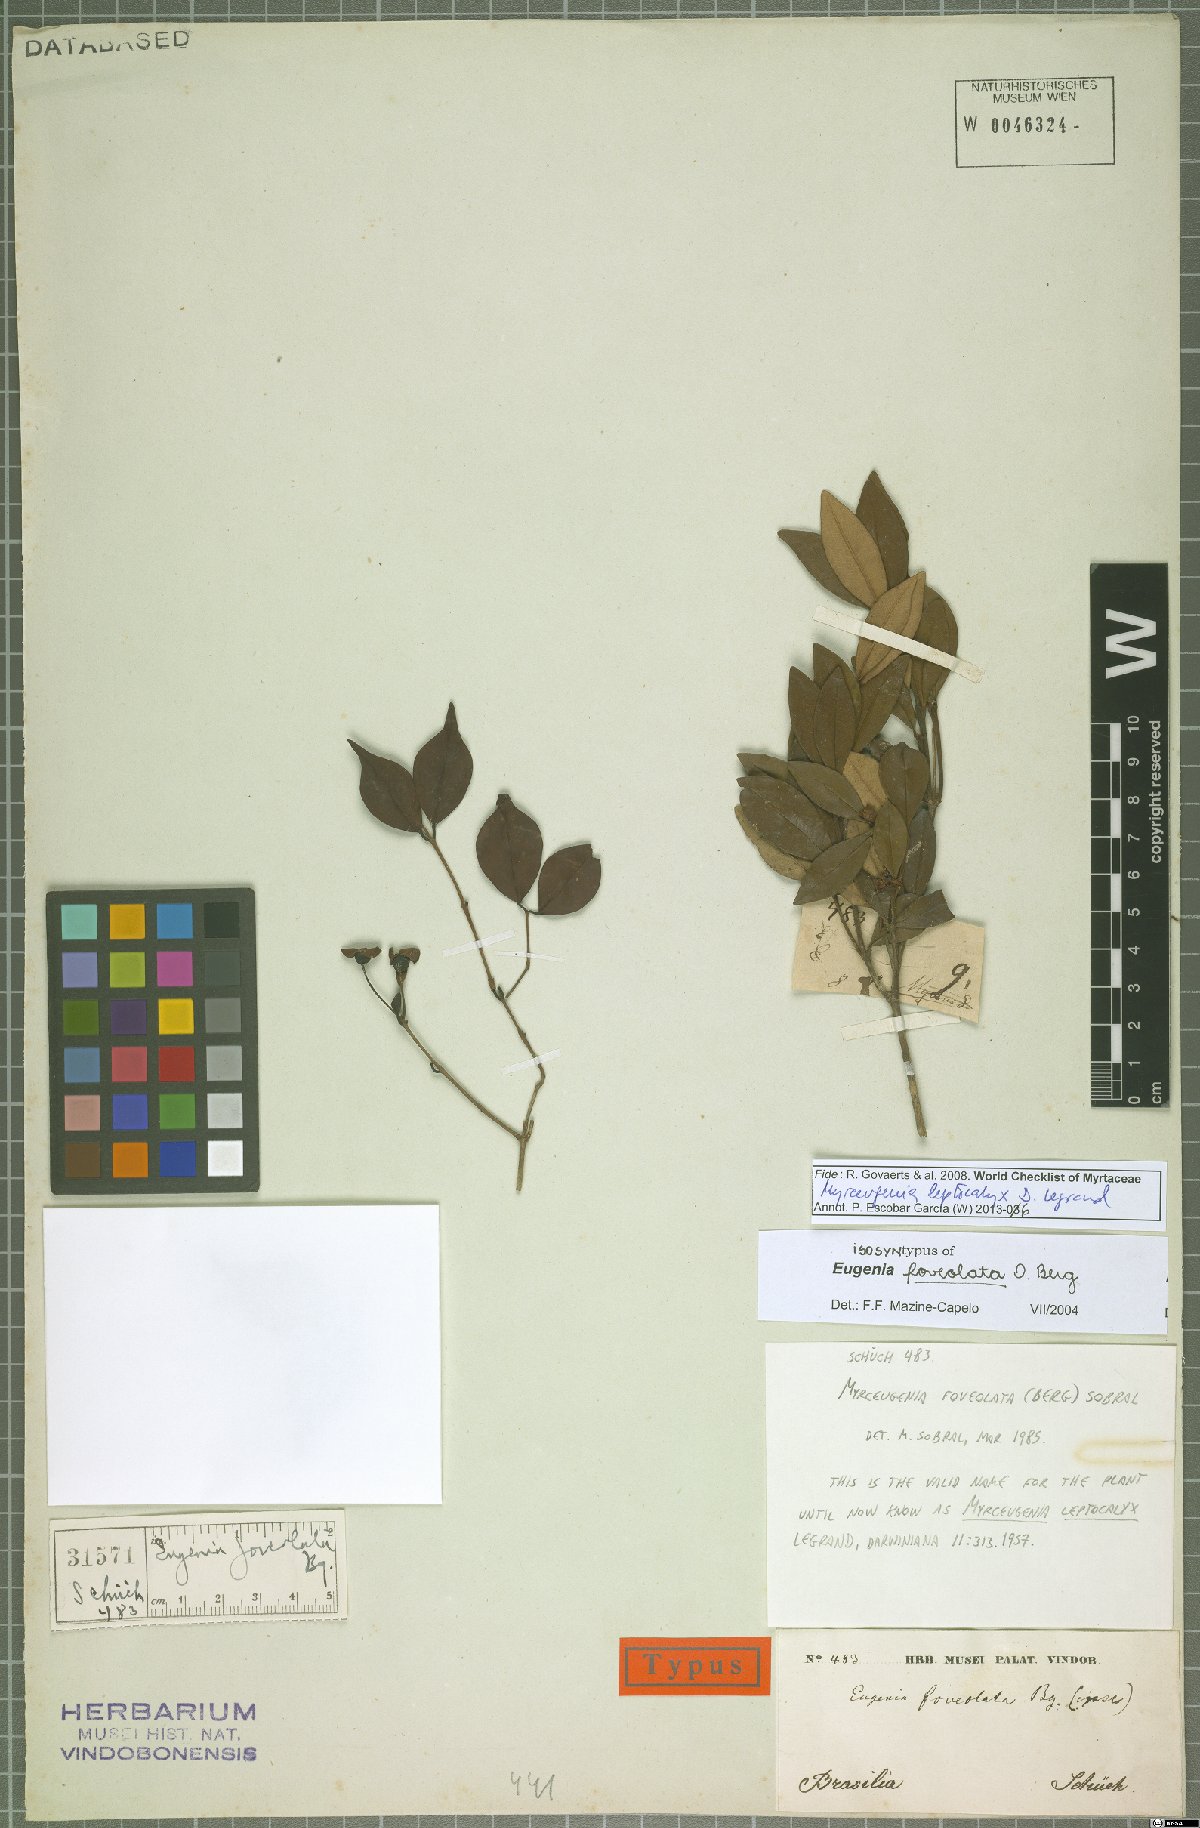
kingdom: Plantae
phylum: Tracheophyta
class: Magnoliopsida
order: Myrtales
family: Myrtaceae
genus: Myrceugenia
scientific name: Myrceugenia foveolata
